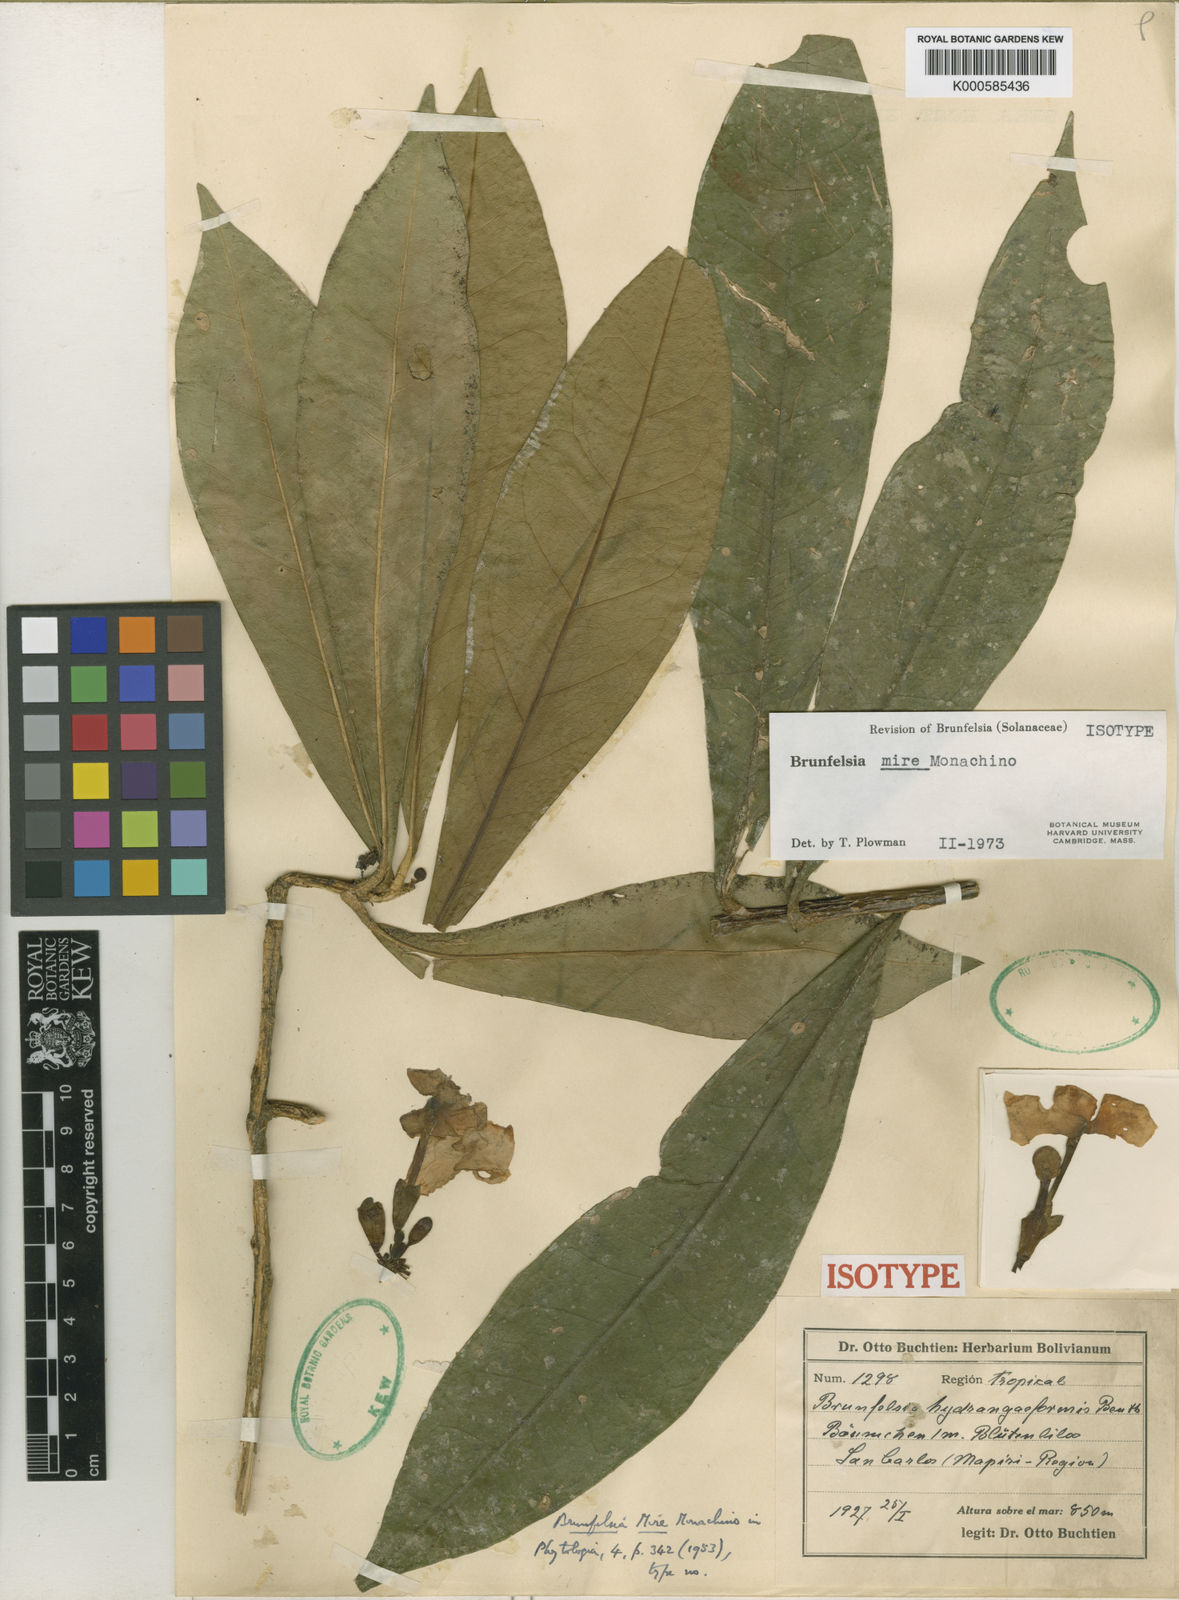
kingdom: Plantae
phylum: Tracheophyta
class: Magnoliopsida
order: Solanales
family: Solanaceae
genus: Brunfelsia
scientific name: Brunfelsia mire
